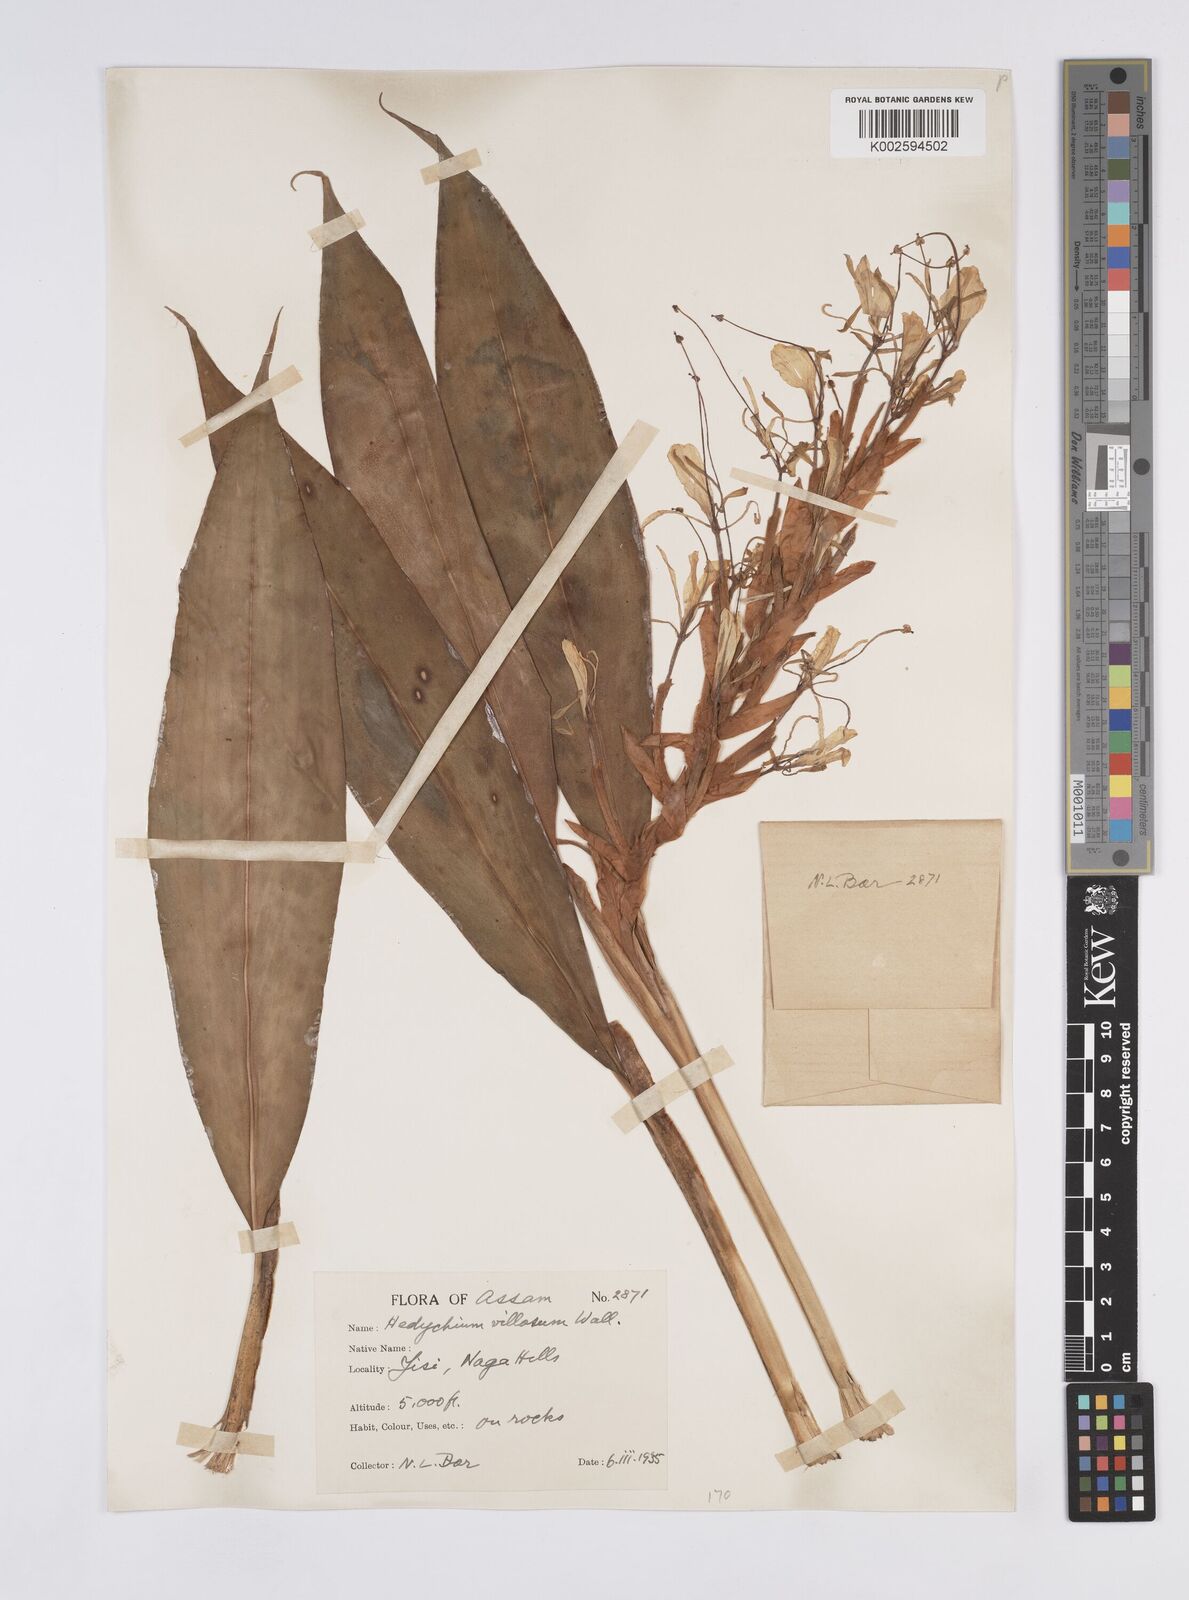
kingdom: Plantae
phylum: Tracheophyta
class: Liliopsida
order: Zingiberales
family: Zingiberaceae
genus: Hedychium
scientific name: Hedychium villosum
